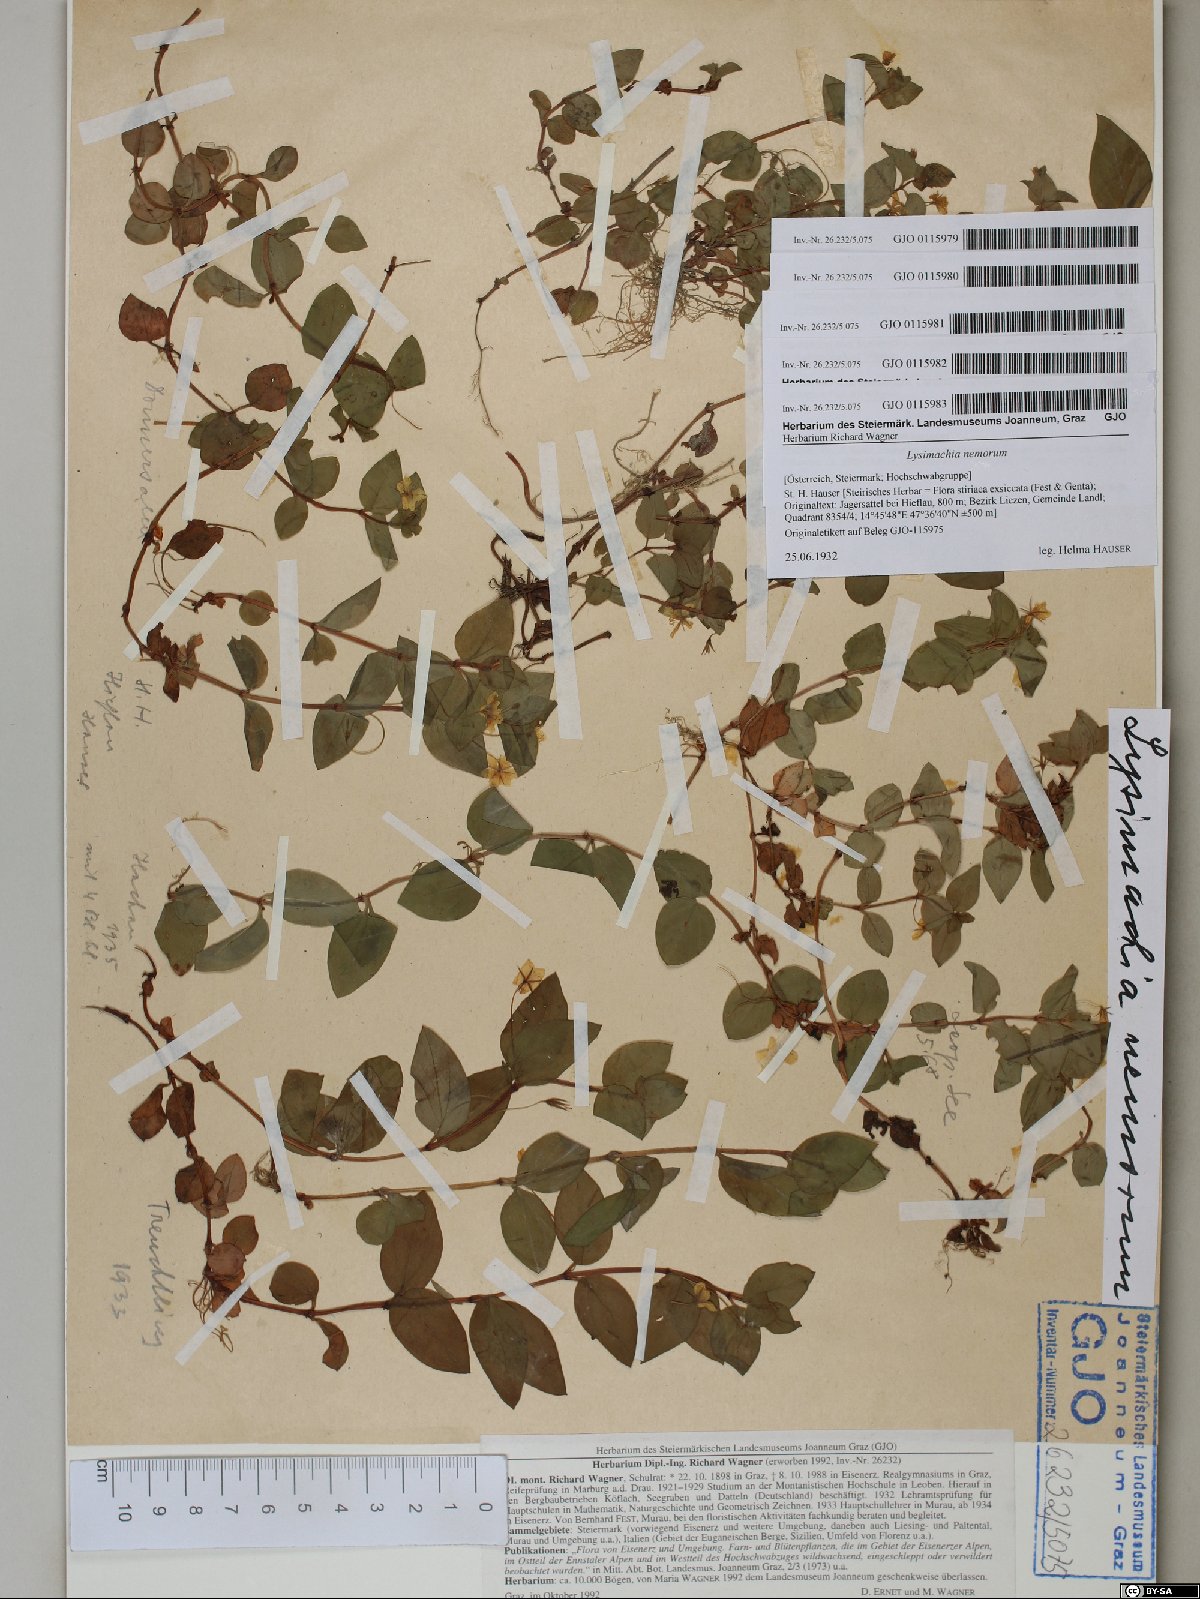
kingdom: Plantae
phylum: Tracheophyta
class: Magnoliopsida
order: Ericales
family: Primulaceae
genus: Lysimachia
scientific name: Lysimachia nemorum
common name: Yellow pimpernel
